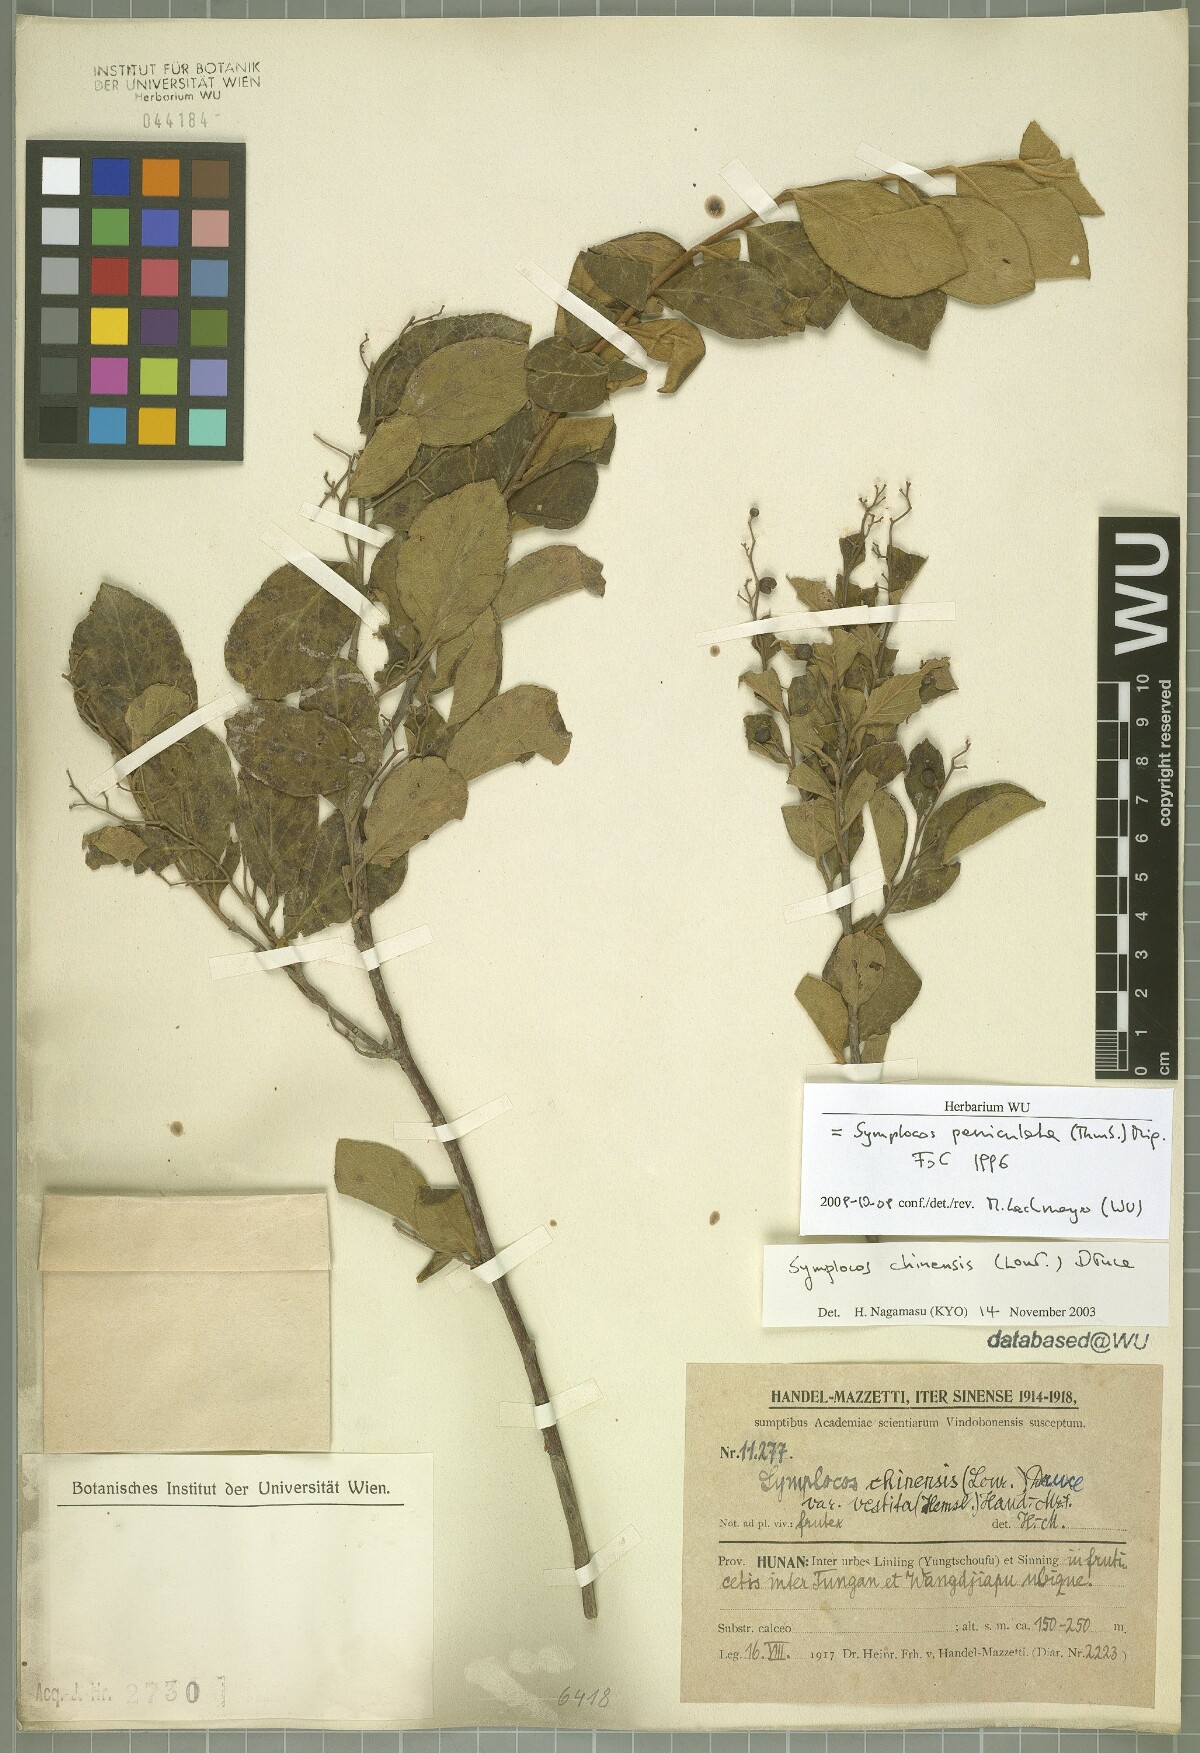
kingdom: Plantae
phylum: Tracheophyta
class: Magnoliopsida
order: Ericales
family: Symplocaceae
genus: Symplocos
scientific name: Symplocos paniculata
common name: Sapphire-berry
